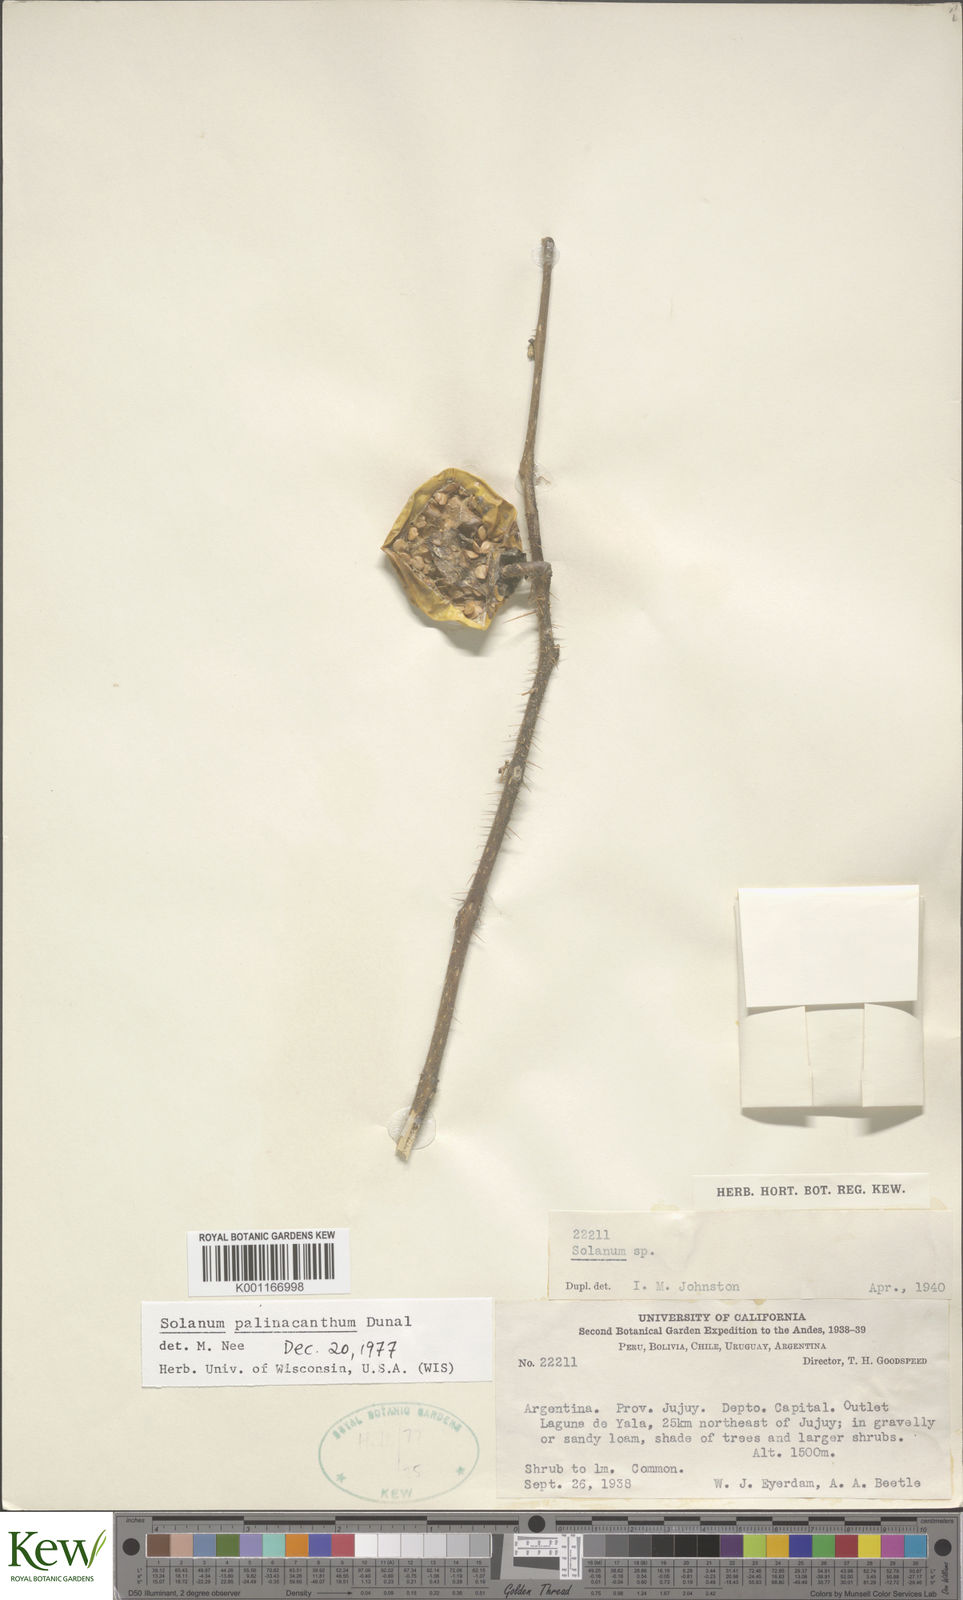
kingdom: Plantae
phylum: Tracheophyta
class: Magnoliopsida
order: Solanales
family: Solanaceae
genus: Solanum
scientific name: Solanum palinacanthum
